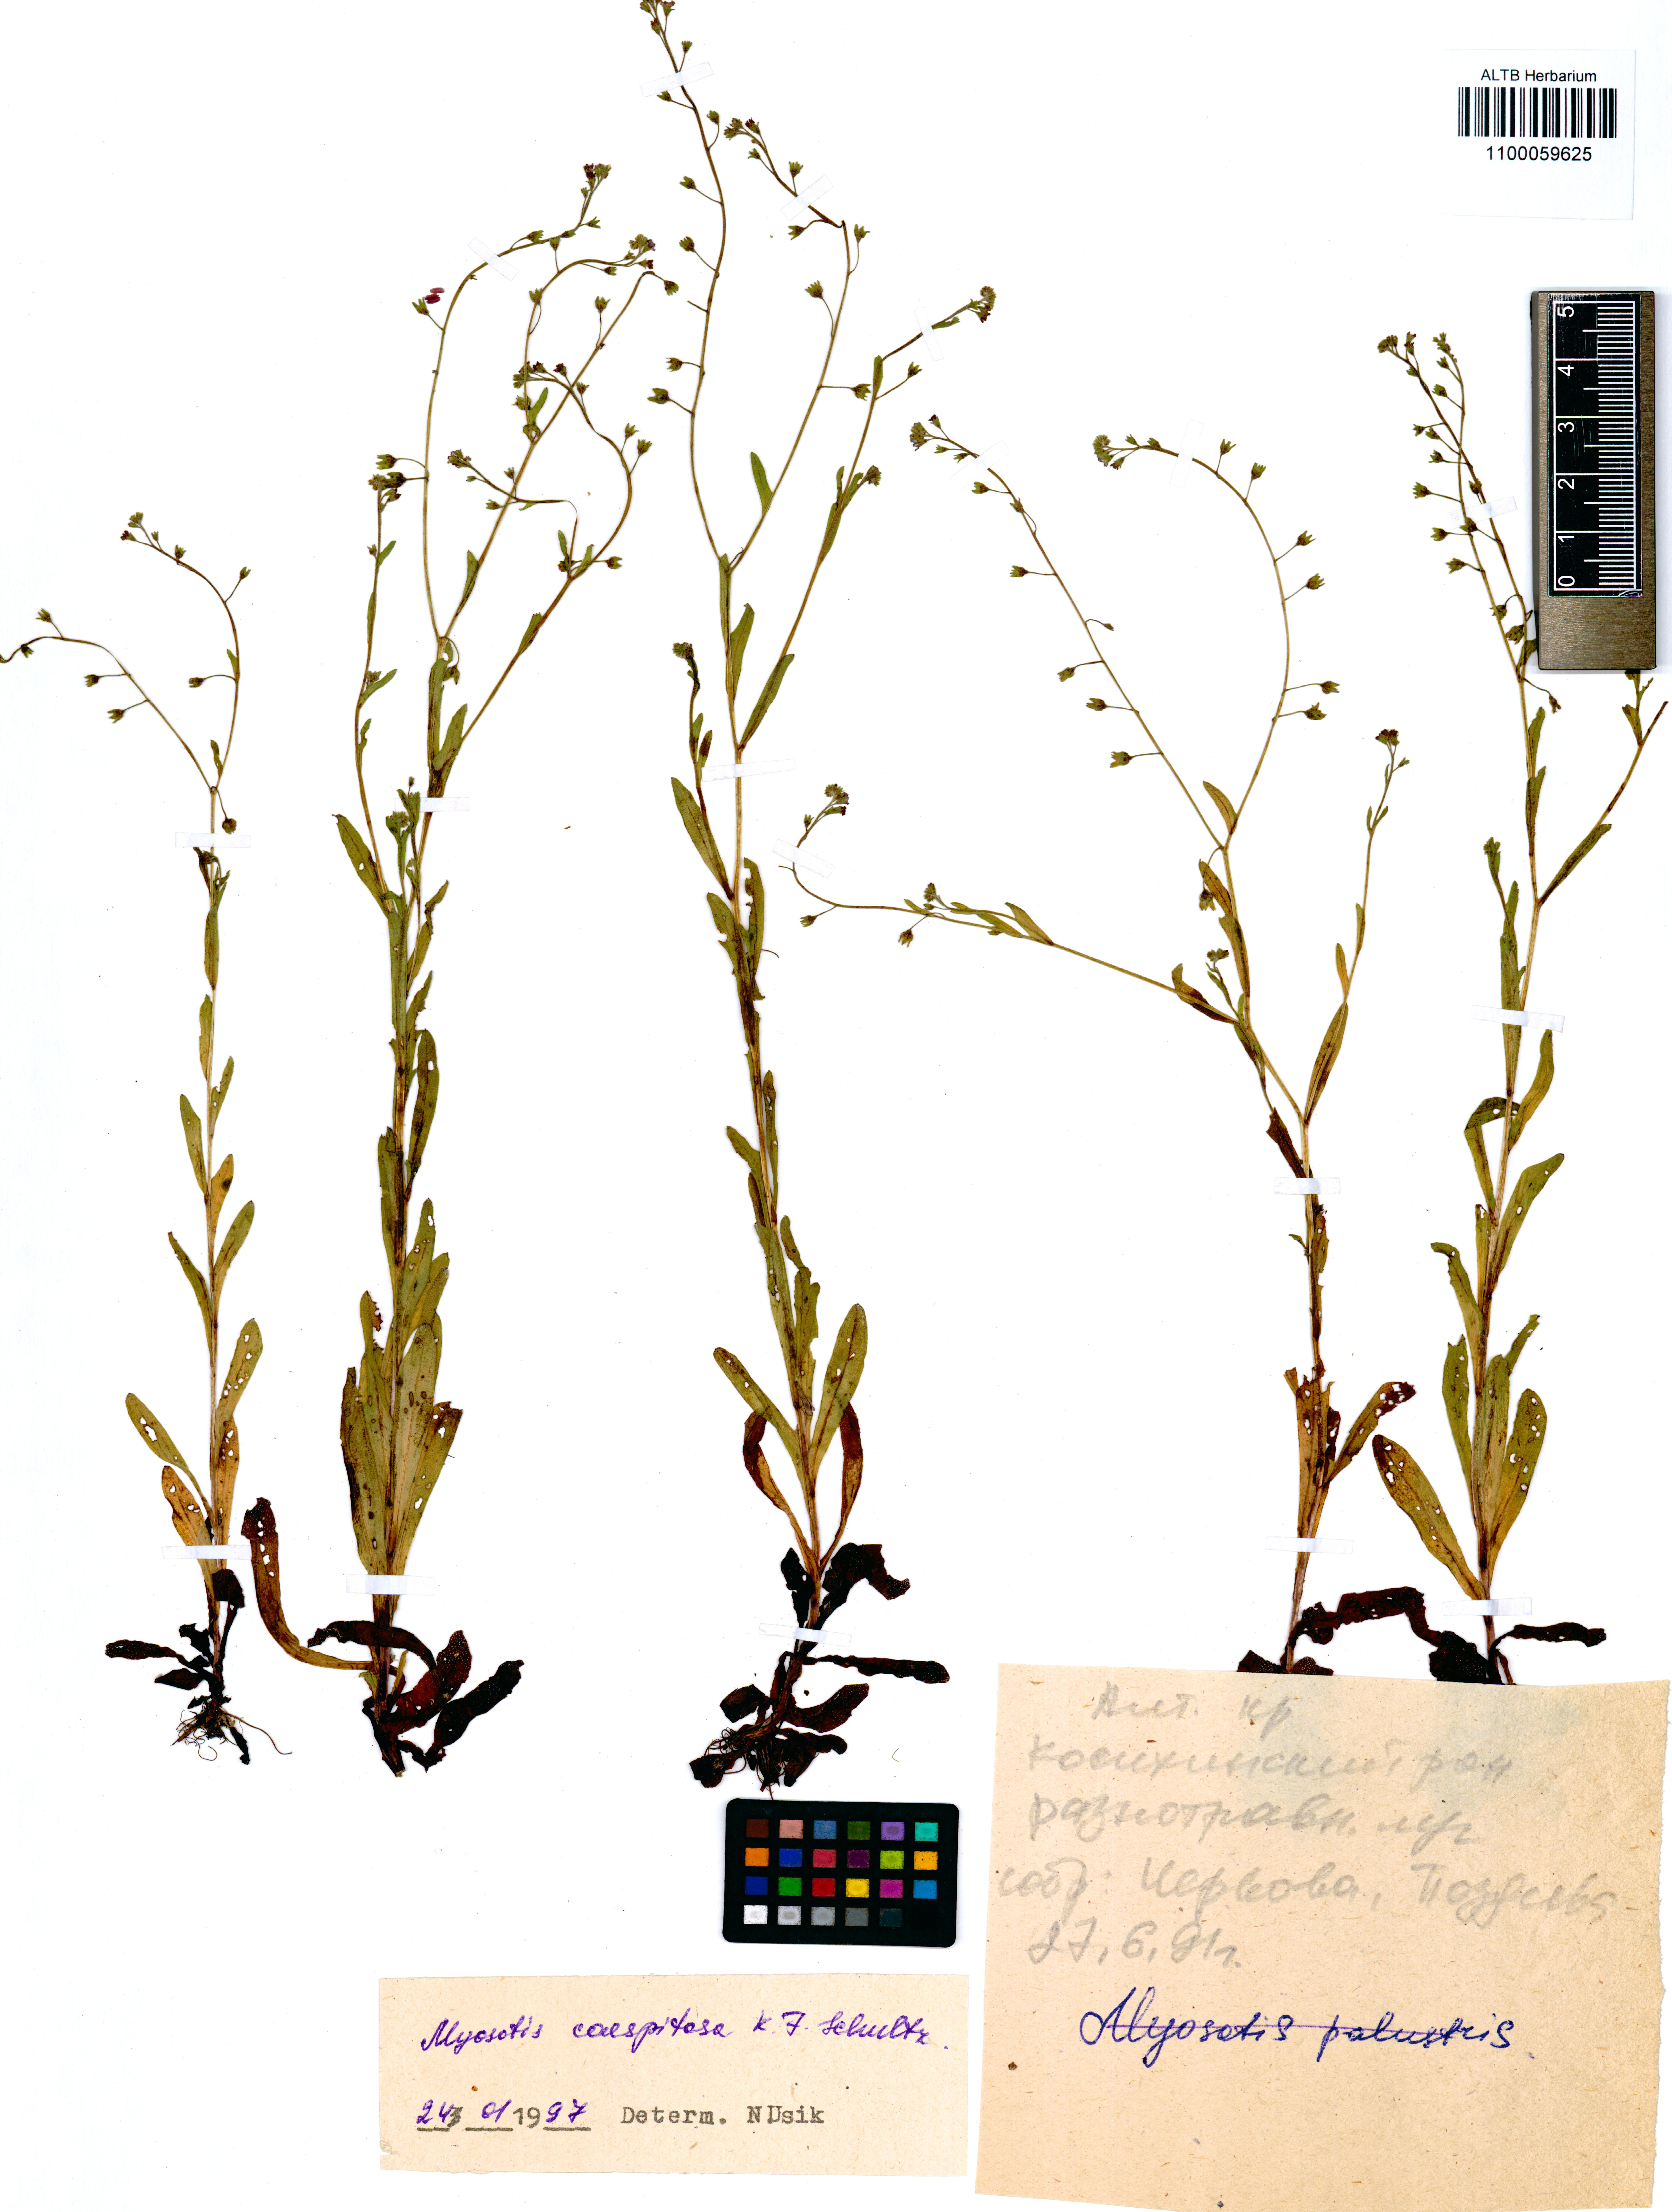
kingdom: Plantae
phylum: Tracheophyta
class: Magnoliopsida
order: Boraginales
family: Boraginaceae
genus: Myosotis
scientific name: Myosotis laxa
